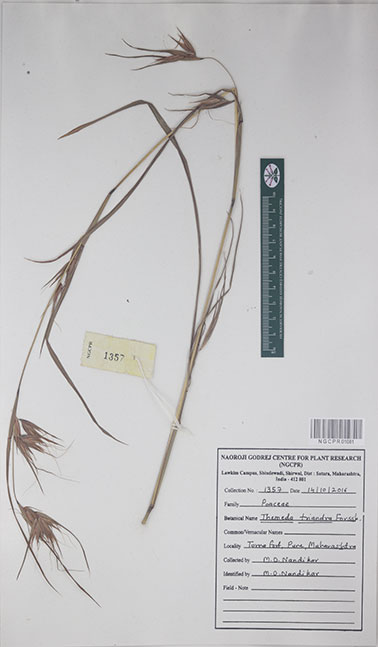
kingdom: Plantae
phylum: Tracheophyta
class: Liliopsida
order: Poales
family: Poaceae
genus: Themeda
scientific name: Themeda triandra
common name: Kangaroo grass
